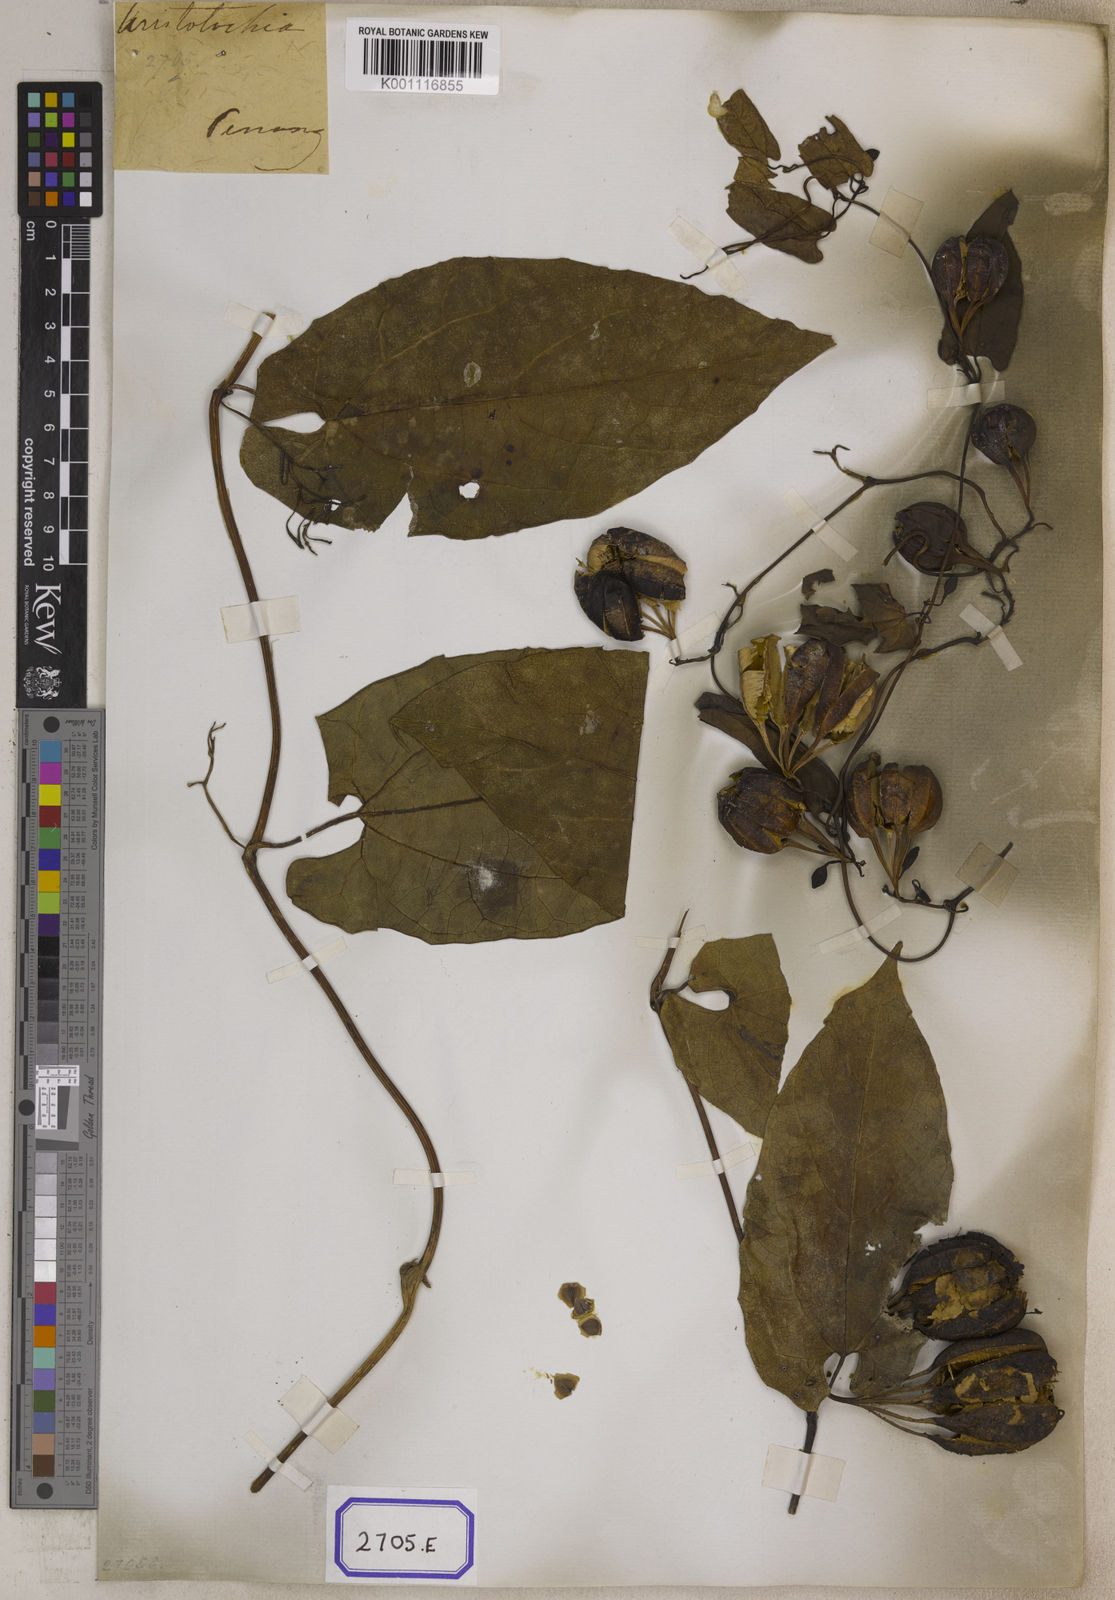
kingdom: Plantae
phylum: Tracheophyta
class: Magnoliopsida
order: Piperales
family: Aristolochiaceae
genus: Aristolochia
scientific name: Aristolochia acuminata
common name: Indian birthwort
